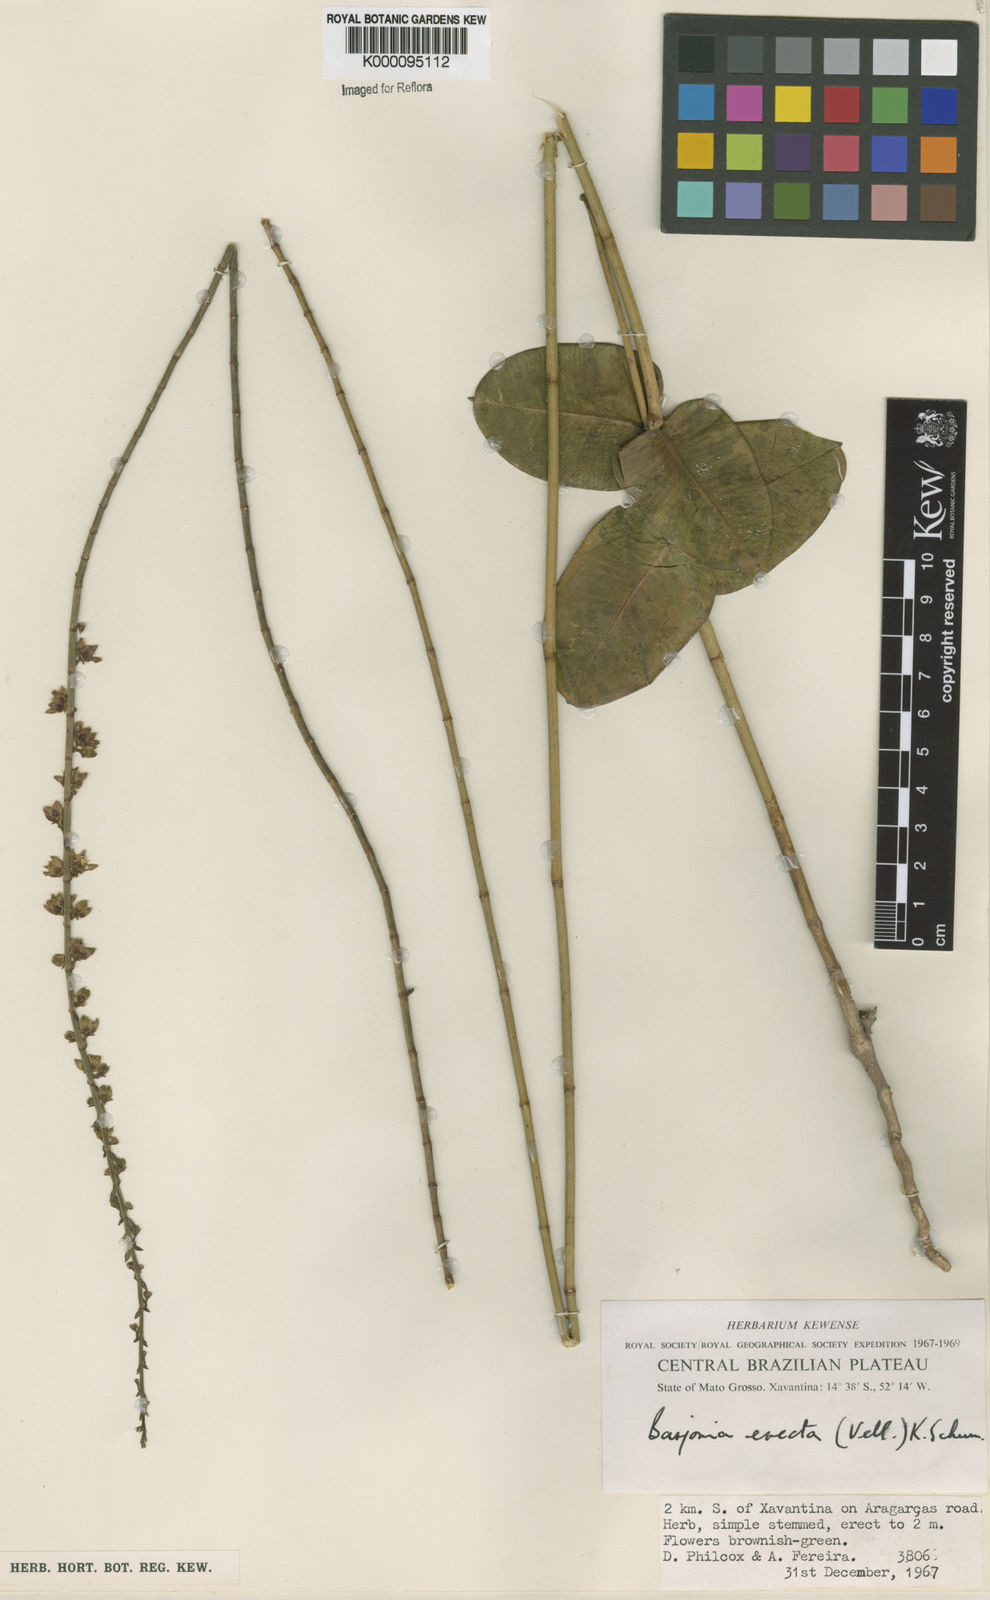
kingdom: Plantae
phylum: Tracheophyta
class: Magnoliopsida
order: Gentianales
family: Apocynaceae
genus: Barjonia
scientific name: Barjonia erecta
